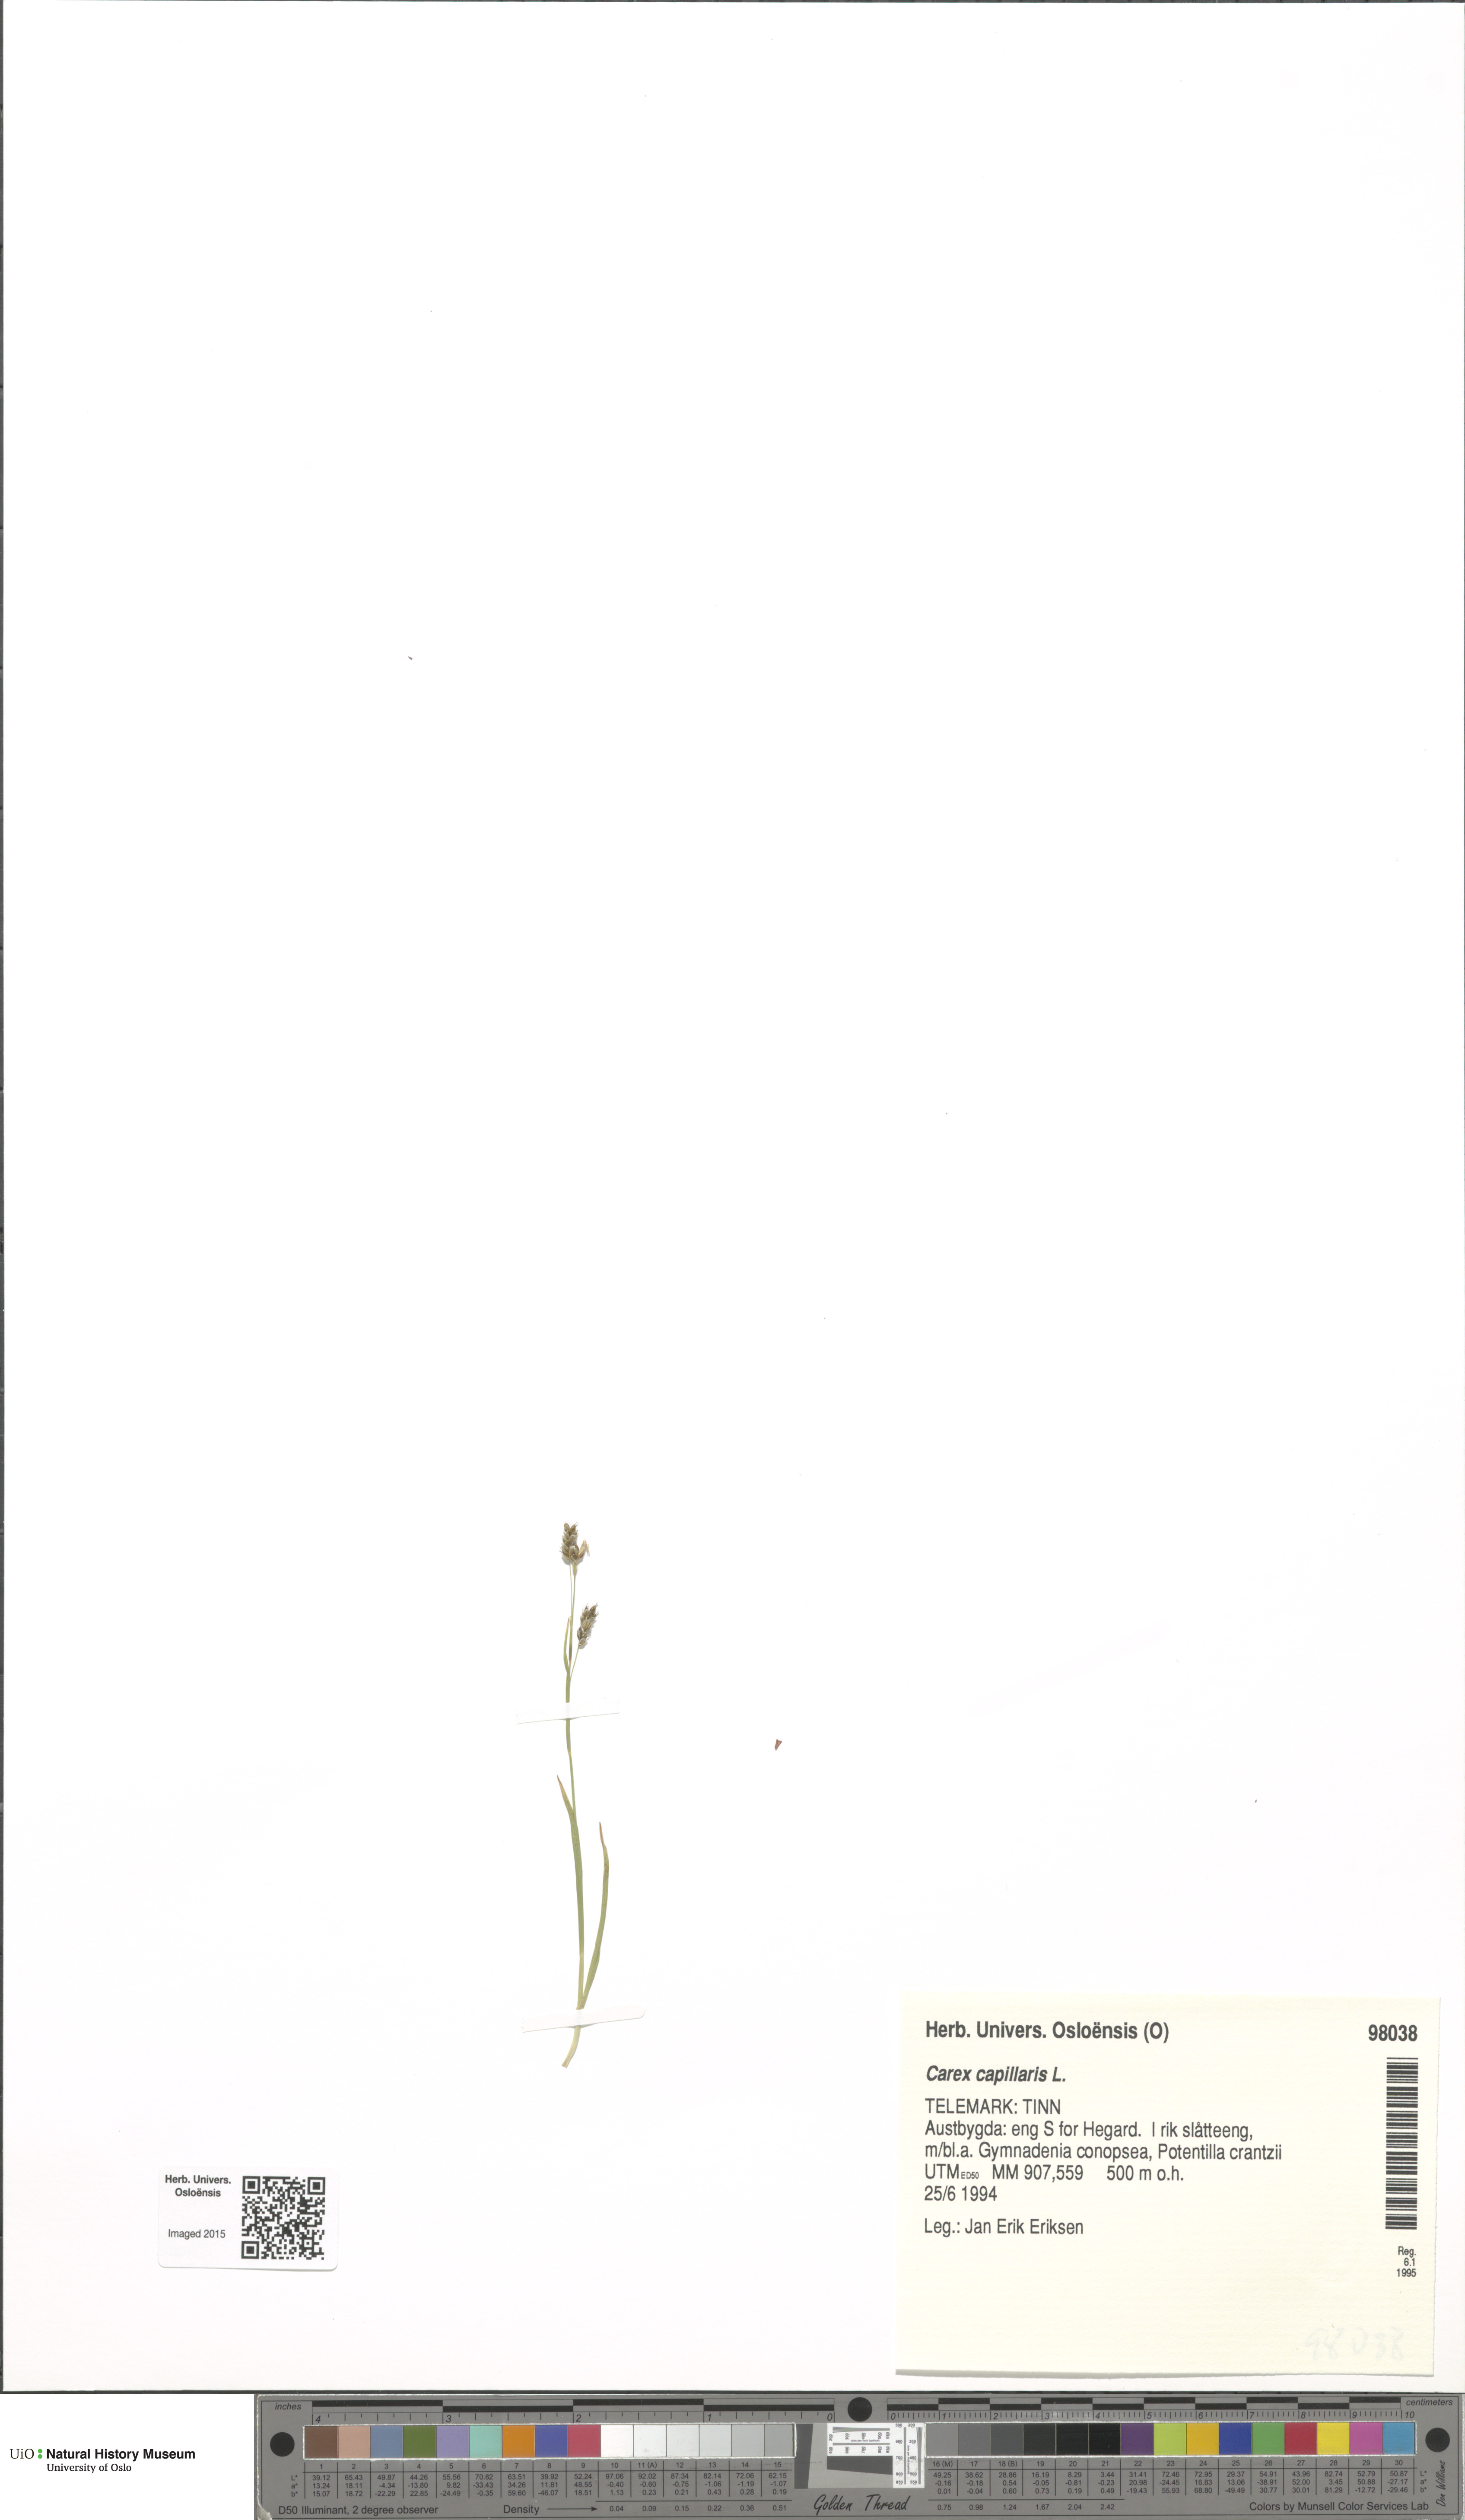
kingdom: Plantae
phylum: Tracheophyta
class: Liliopsida
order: Poales
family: Cyperaceae
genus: Carex
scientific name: Carex ornithopoda
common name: Bird's-foot sedge
